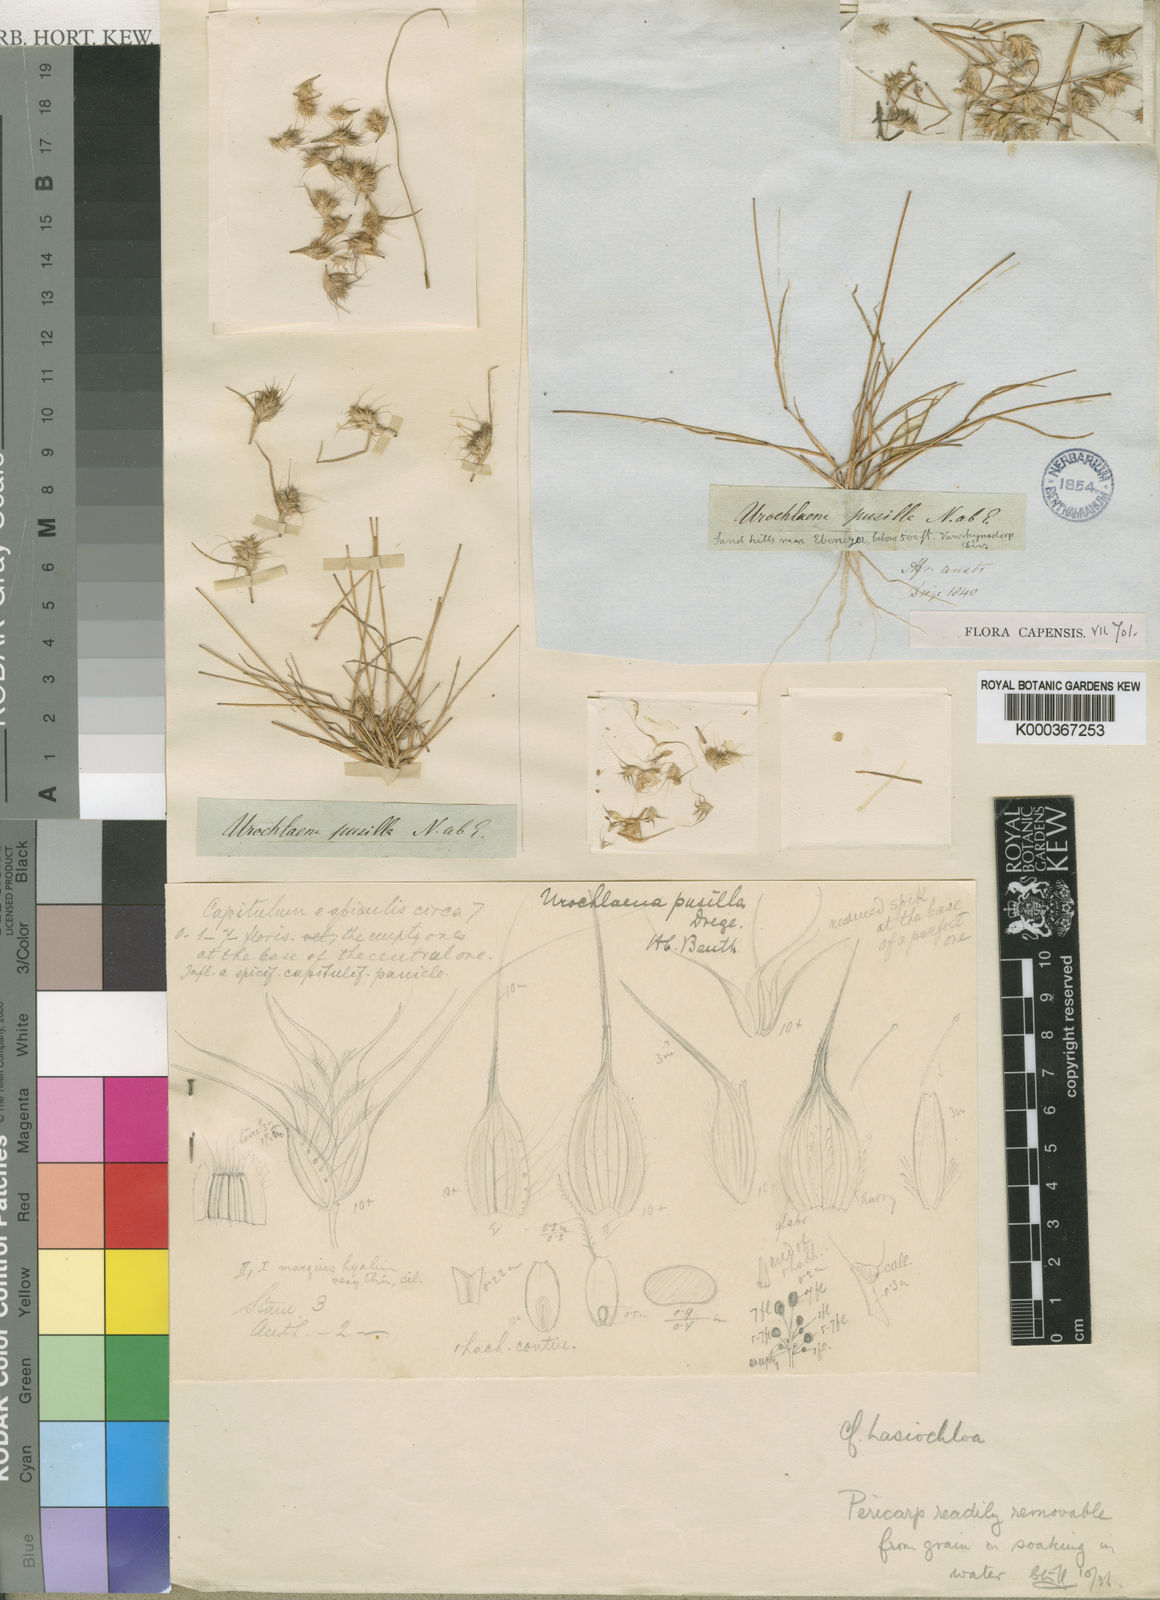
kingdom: Plantae
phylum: Tracheophyta
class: Liliopsida
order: Poales
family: Poaceae
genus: Tribolium
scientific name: Tribolium pusillum
